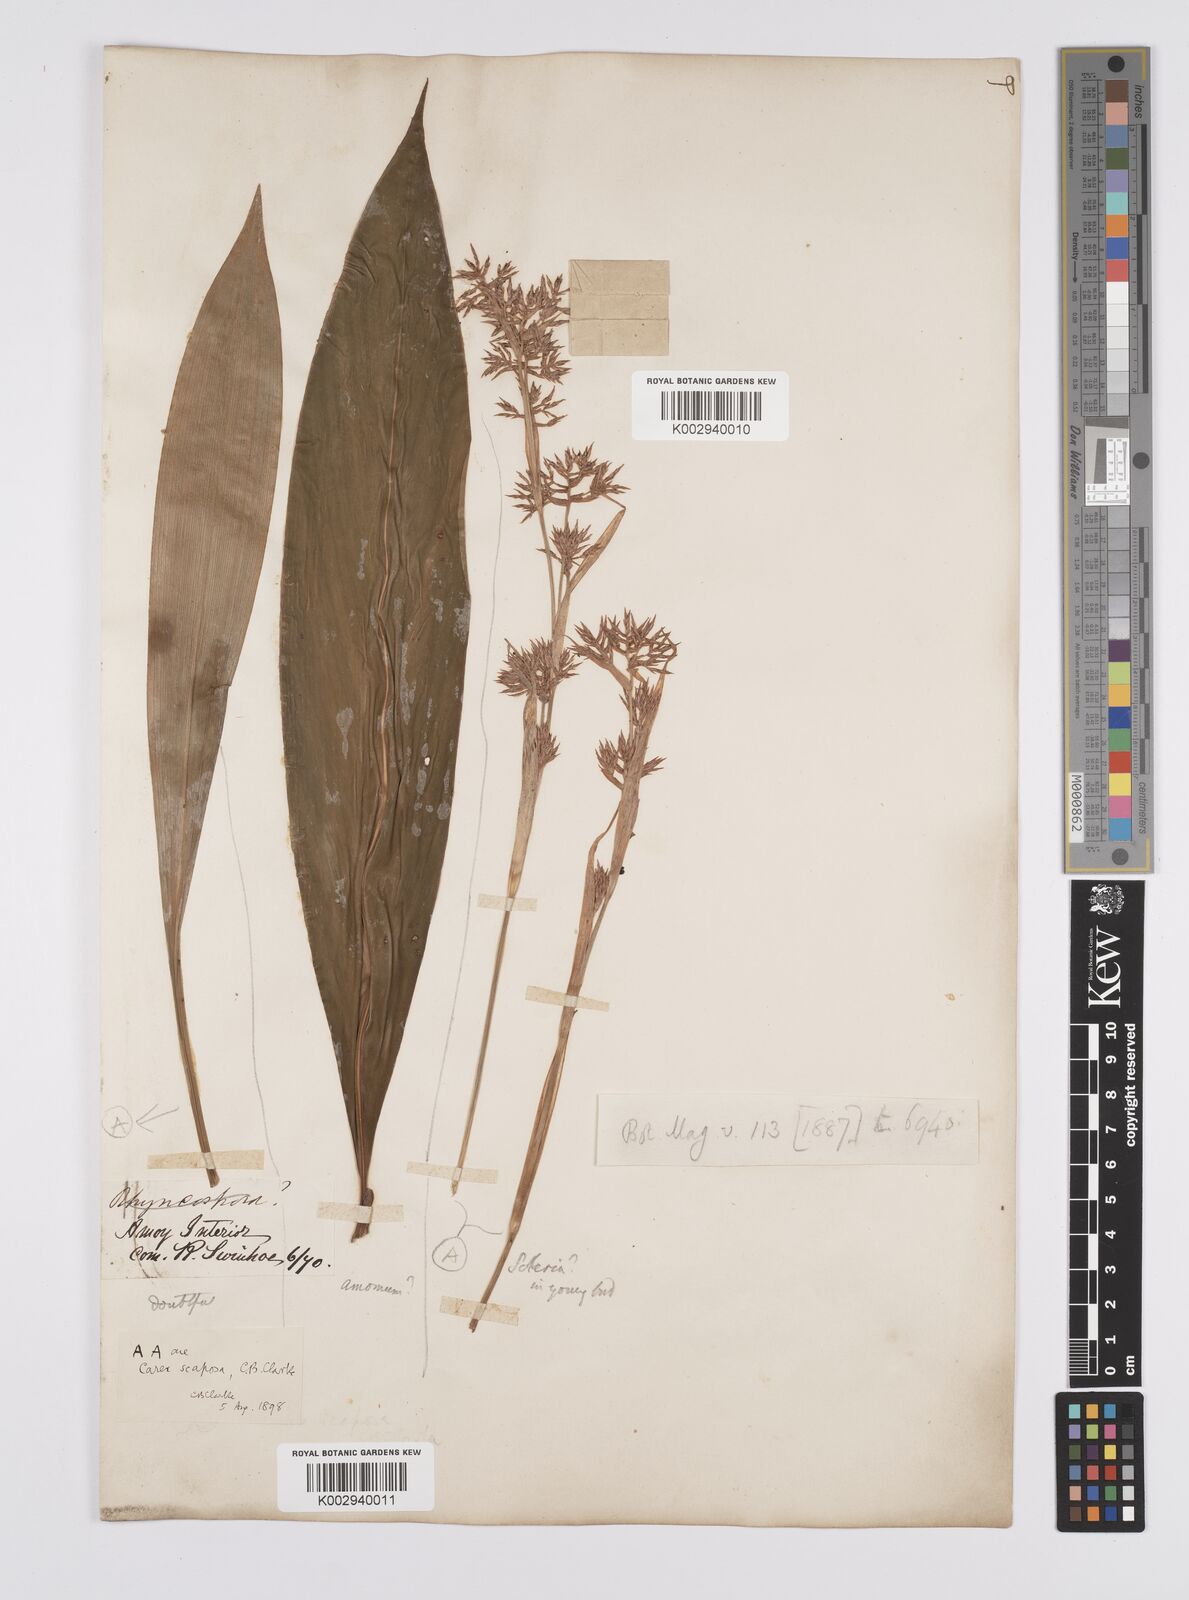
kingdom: Plantae
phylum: Tracheophyta
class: Liliopsida
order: Zingiberales
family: Zingiberaceae
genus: Amomum
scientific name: Amomum
